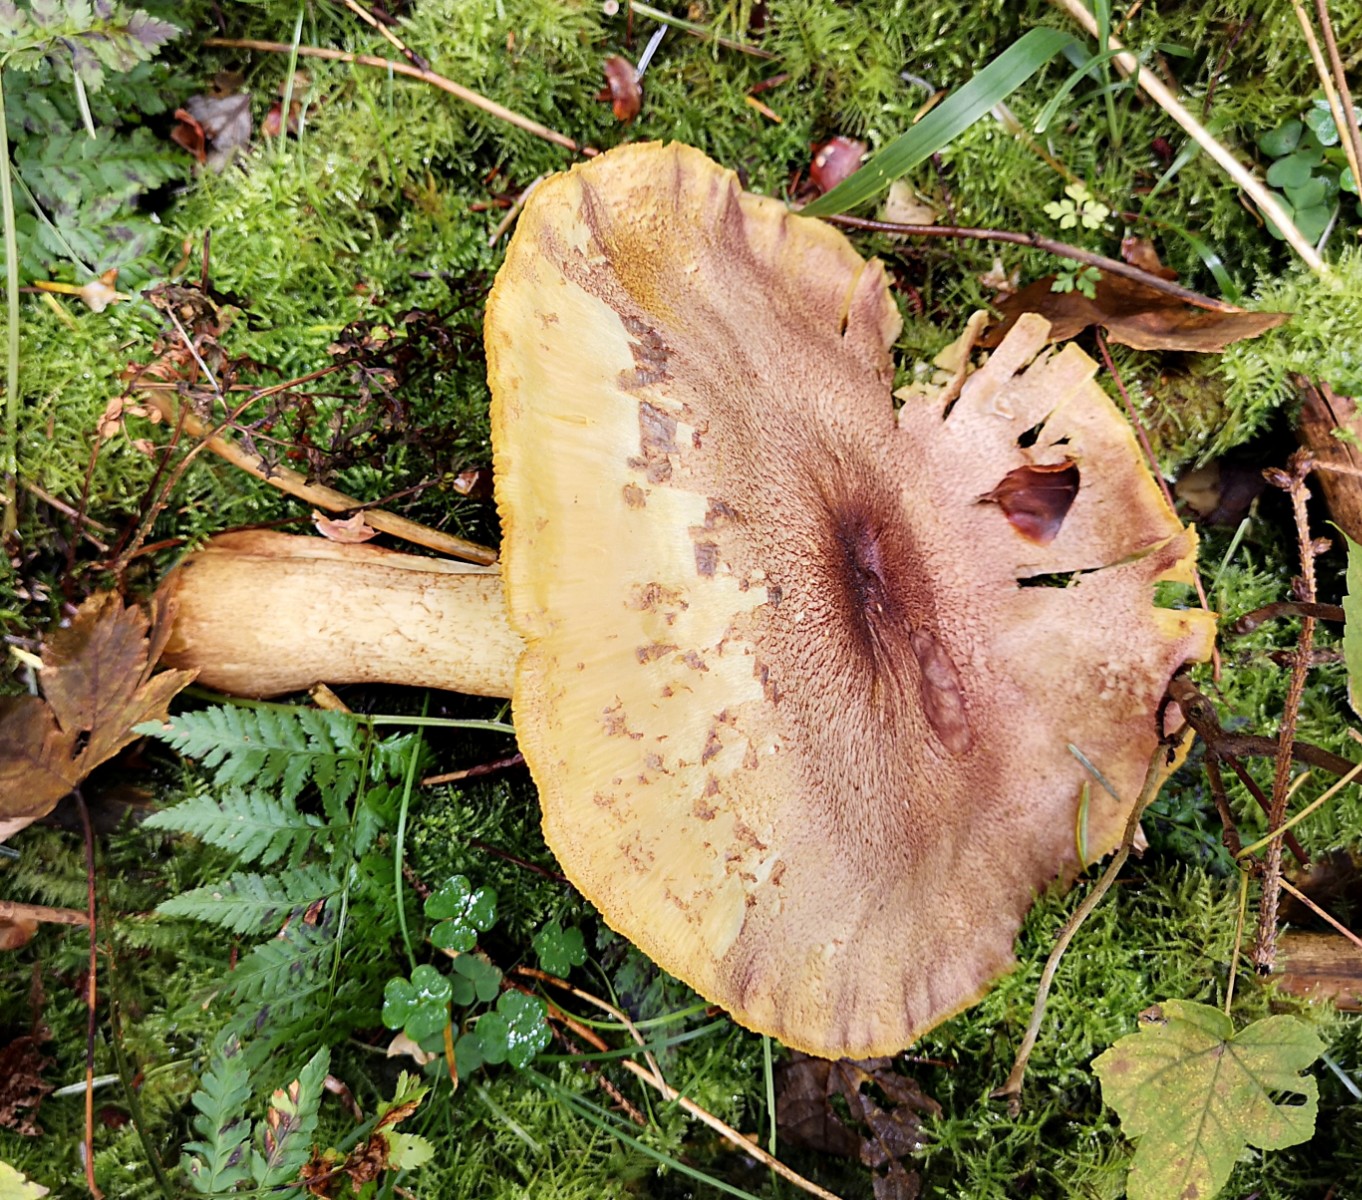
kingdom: Fungi
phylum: Basidiomycota
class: Agaricomycetes
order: Agaricales
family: Tricholomataceae
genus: Tricholomopsis
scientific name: Tricholomopsis rutilans
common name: purpur-væbnerhat
